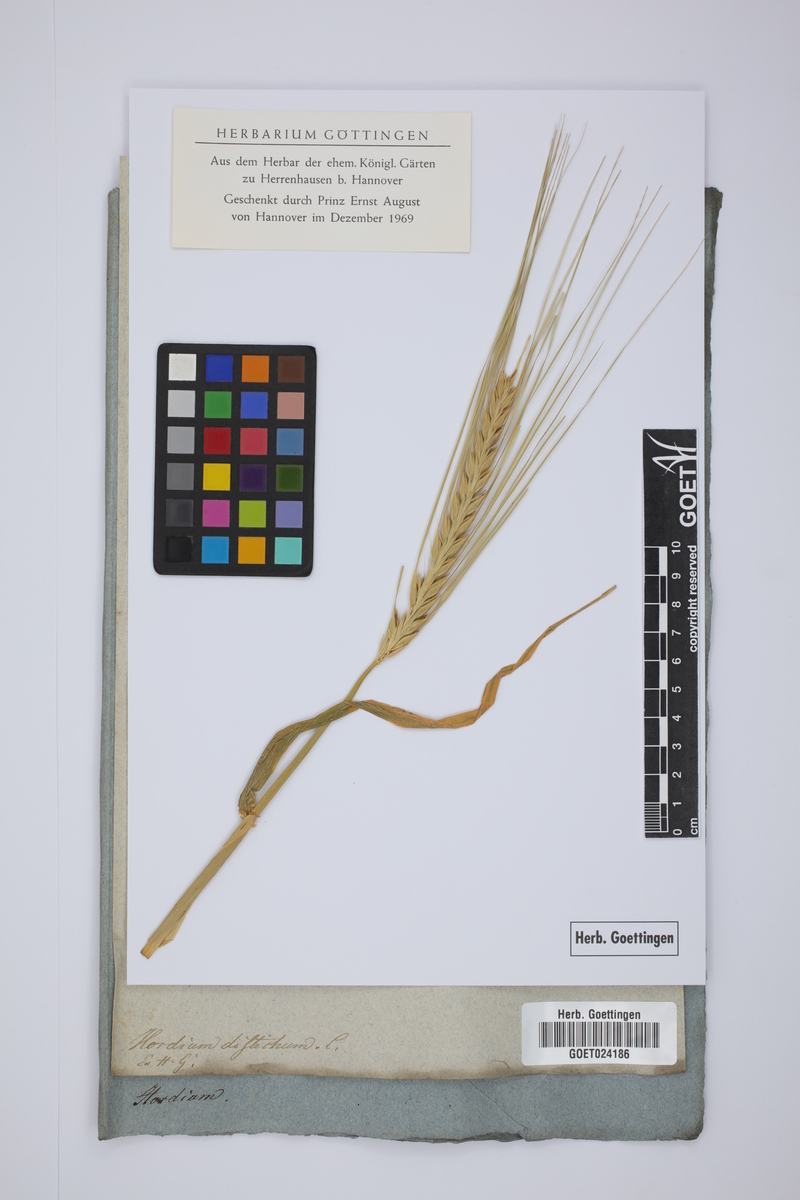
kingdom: Plantae
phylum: Tracheophyta
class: Liliopsida
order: Poales
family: Poaceae
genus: Hordeum
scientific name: Hordeum distichon
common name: Two-rowed barley
